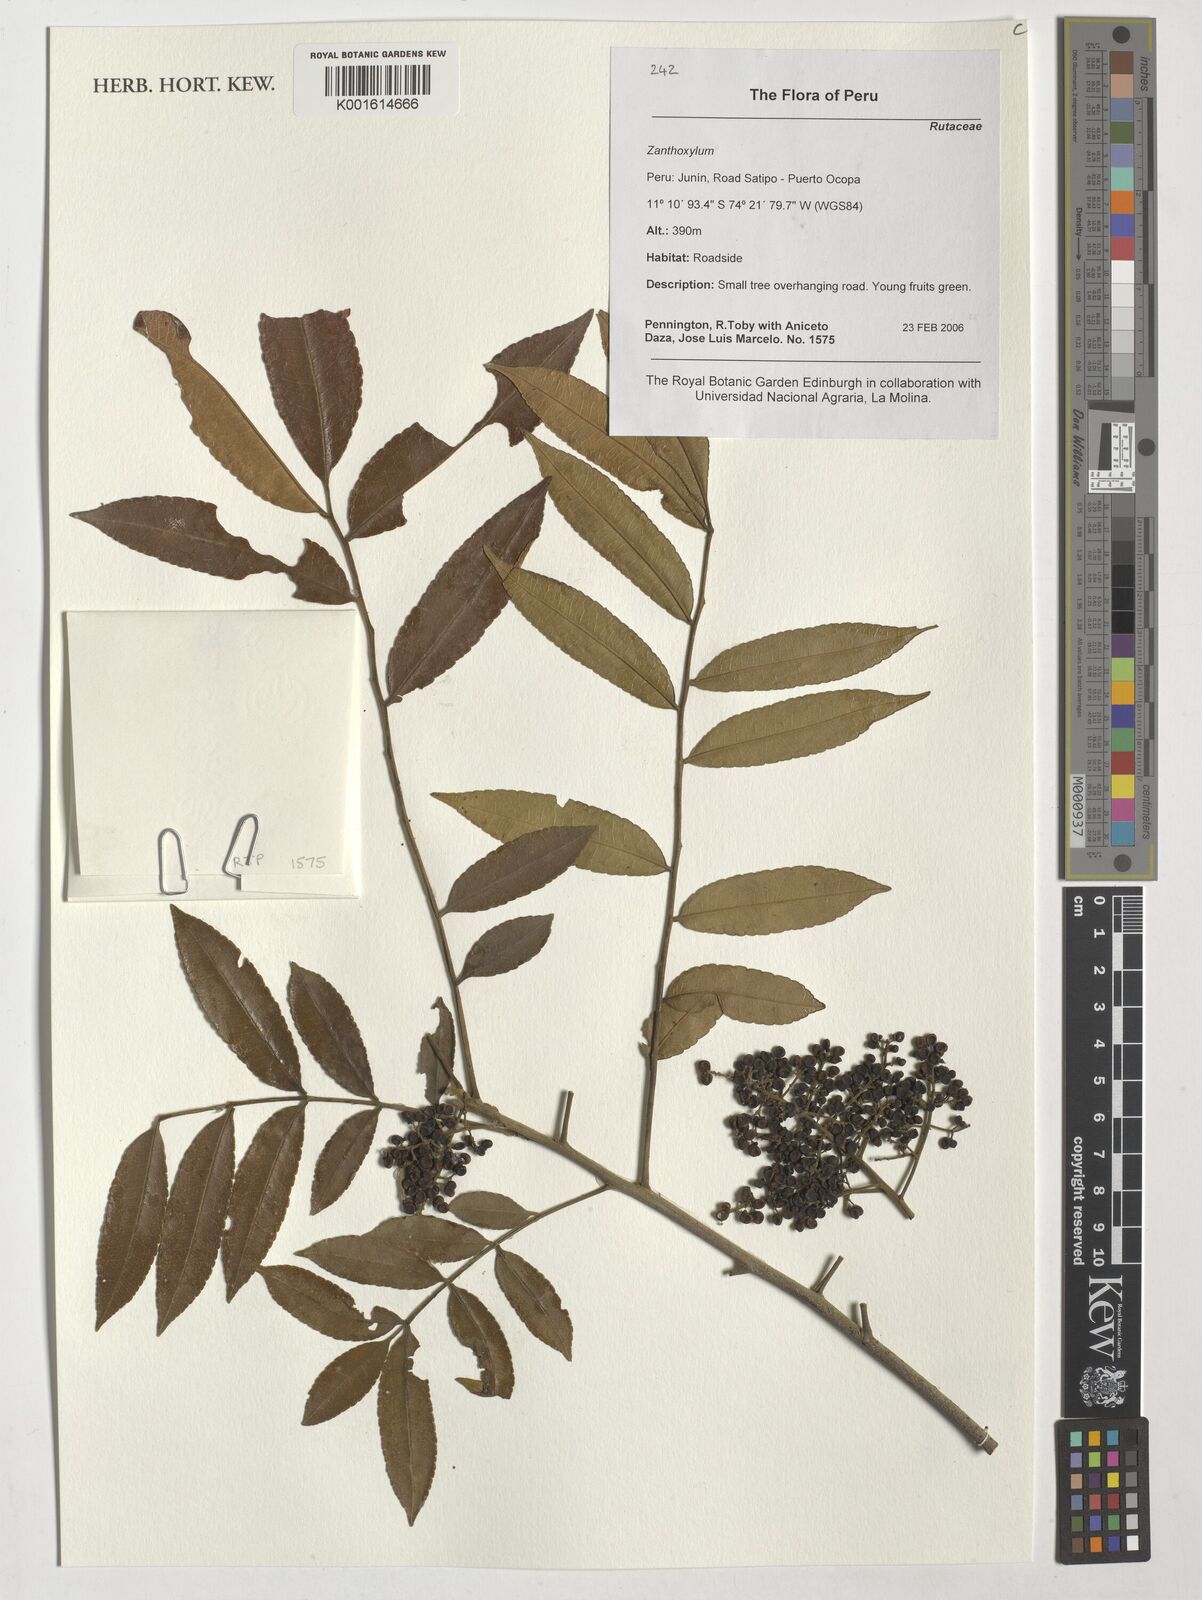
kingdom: Plantae
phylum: Tracheophyta
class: Magnoliopsida
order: Sapindales
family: Rutaceae
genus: Zanthoxylum
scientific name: Zanthoxylum
